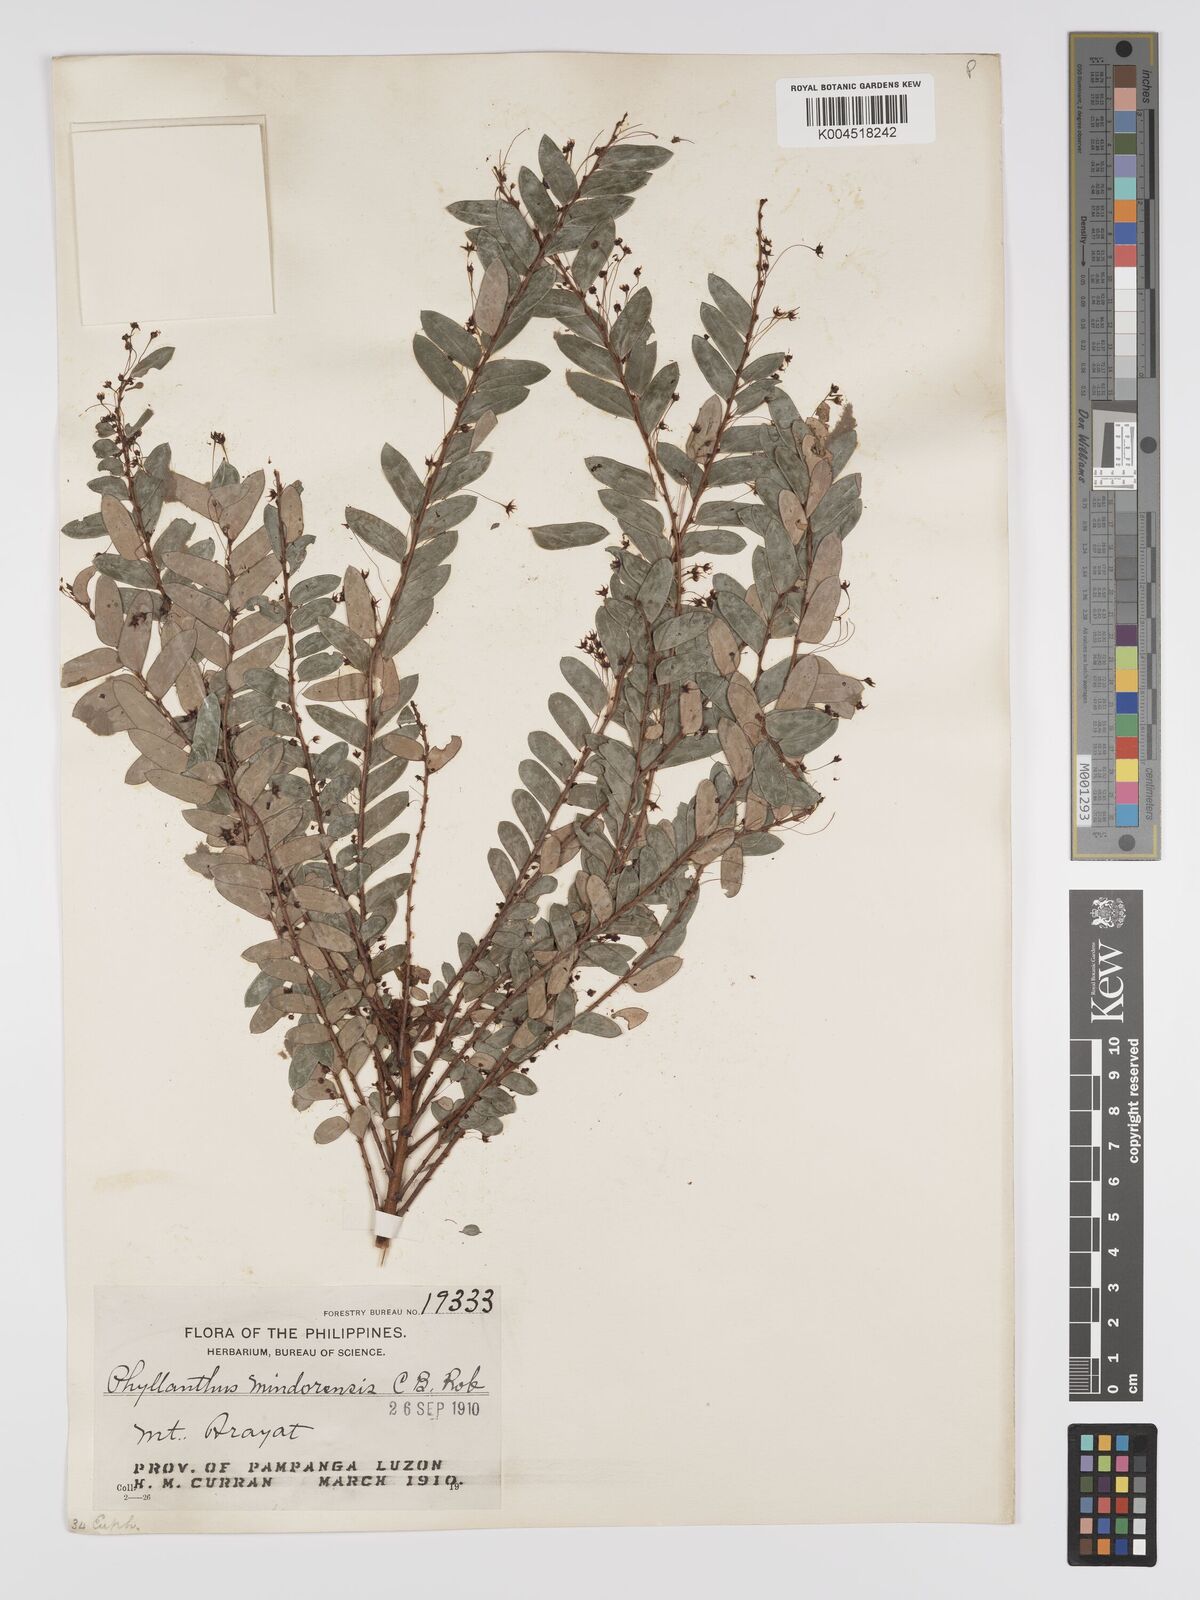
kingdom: Plantae
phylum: Tracheophyta
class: Magnoliopsida
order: Malpighiales
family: Phyllanthaceae
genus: Phyllanthus
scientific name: Phyllanthus celebicus
